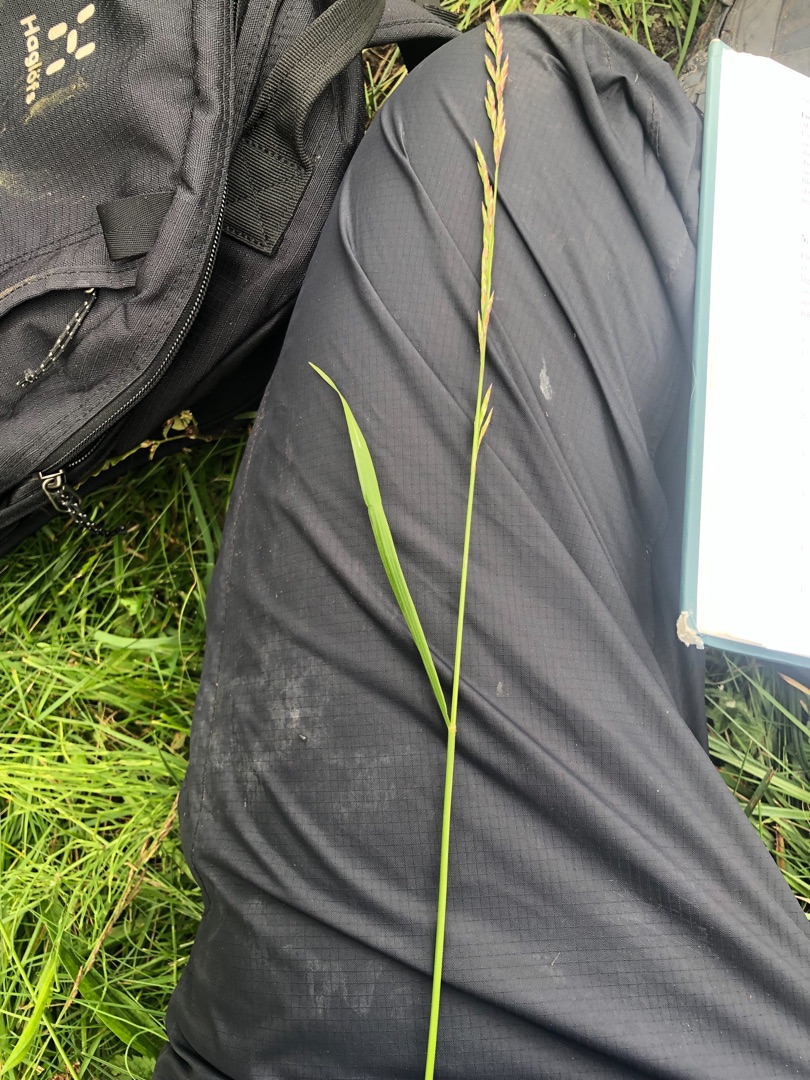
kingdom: Plantae
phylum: Tracheophyta
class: Liliopsida
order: Poales
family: Poaceae
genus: Lolium
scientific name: Lolium pratense
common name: Eng-svingel
